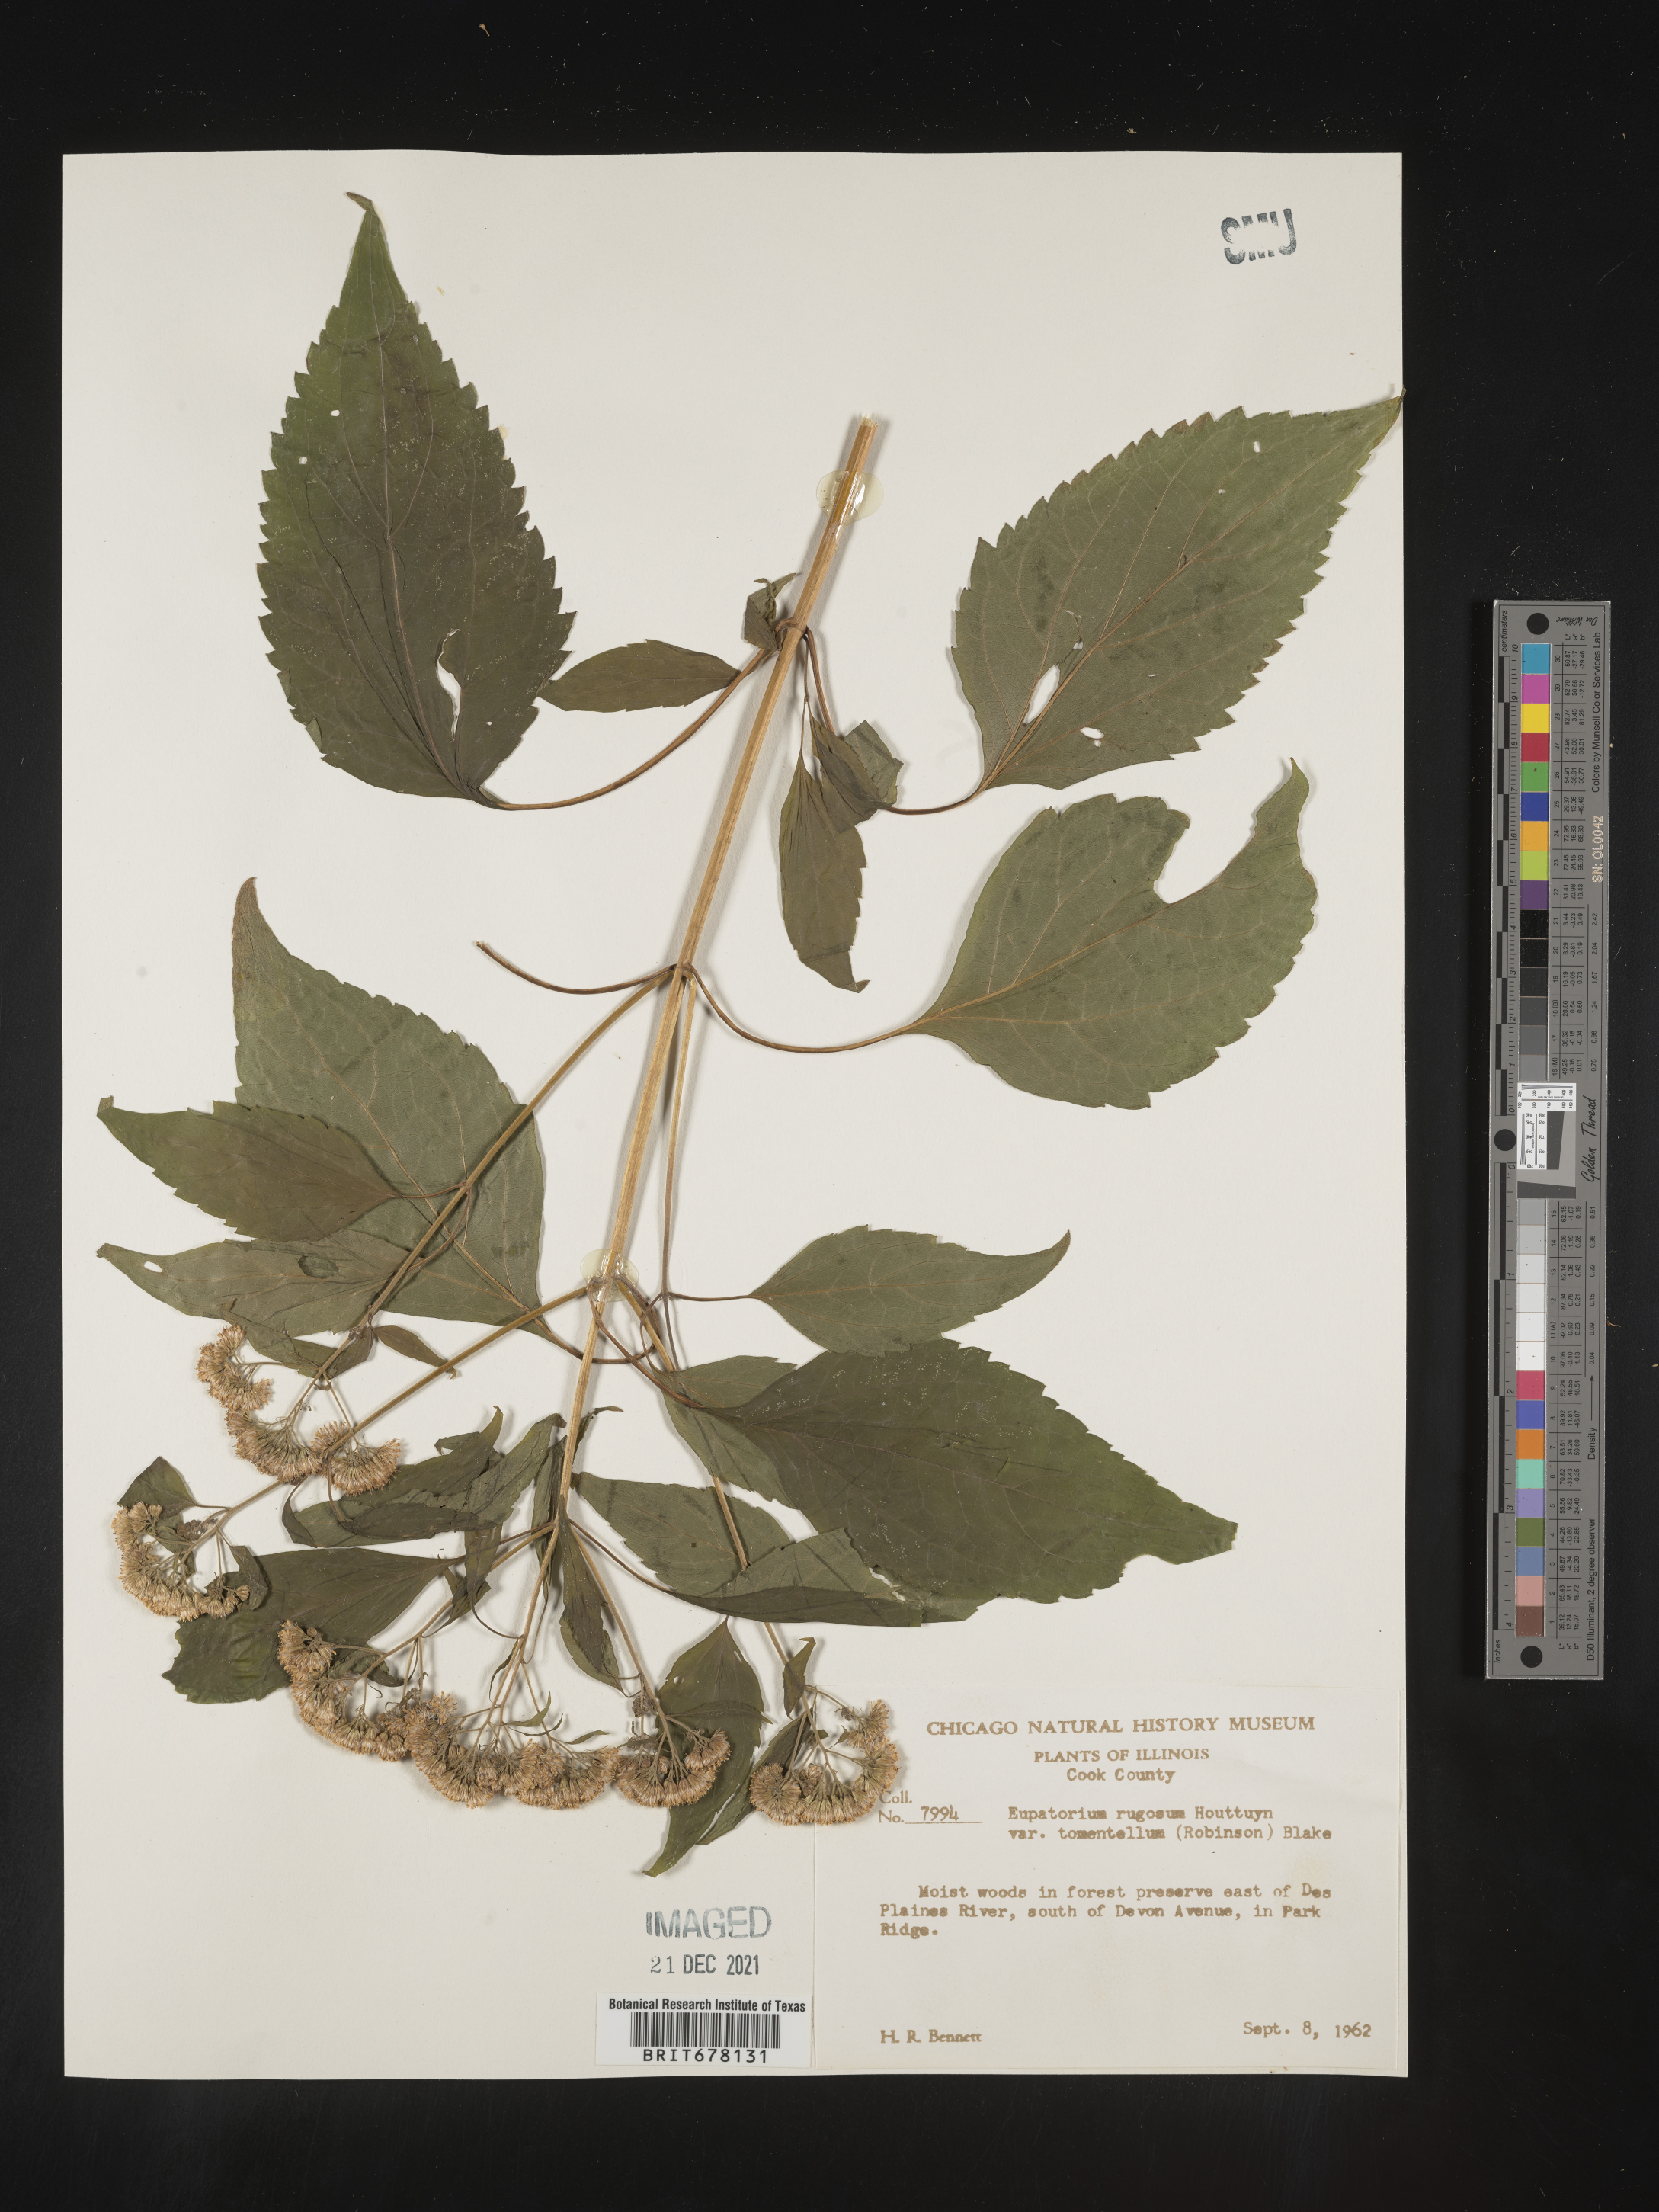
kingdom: Plantae
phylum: Tracheophyta
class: Magnoliopsida
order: Asterales
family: Asteraceae
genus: Ageratina
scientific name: Ageratina altissima
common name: White snakeroot
